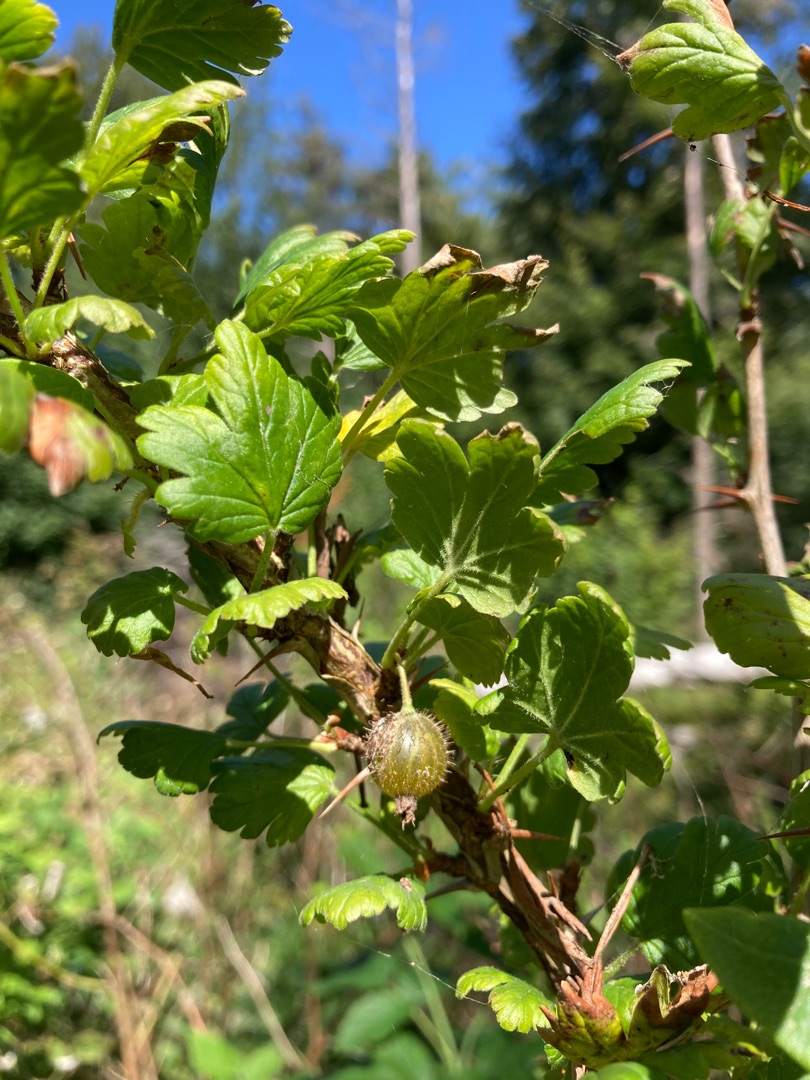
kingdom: Plantae
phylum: Tracheophyta
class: Magnoliopsida
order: Saxifragales
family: Grossulariaceae
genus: Ribes
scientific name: Ribes uva-crispa
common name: Stikkelsbær
